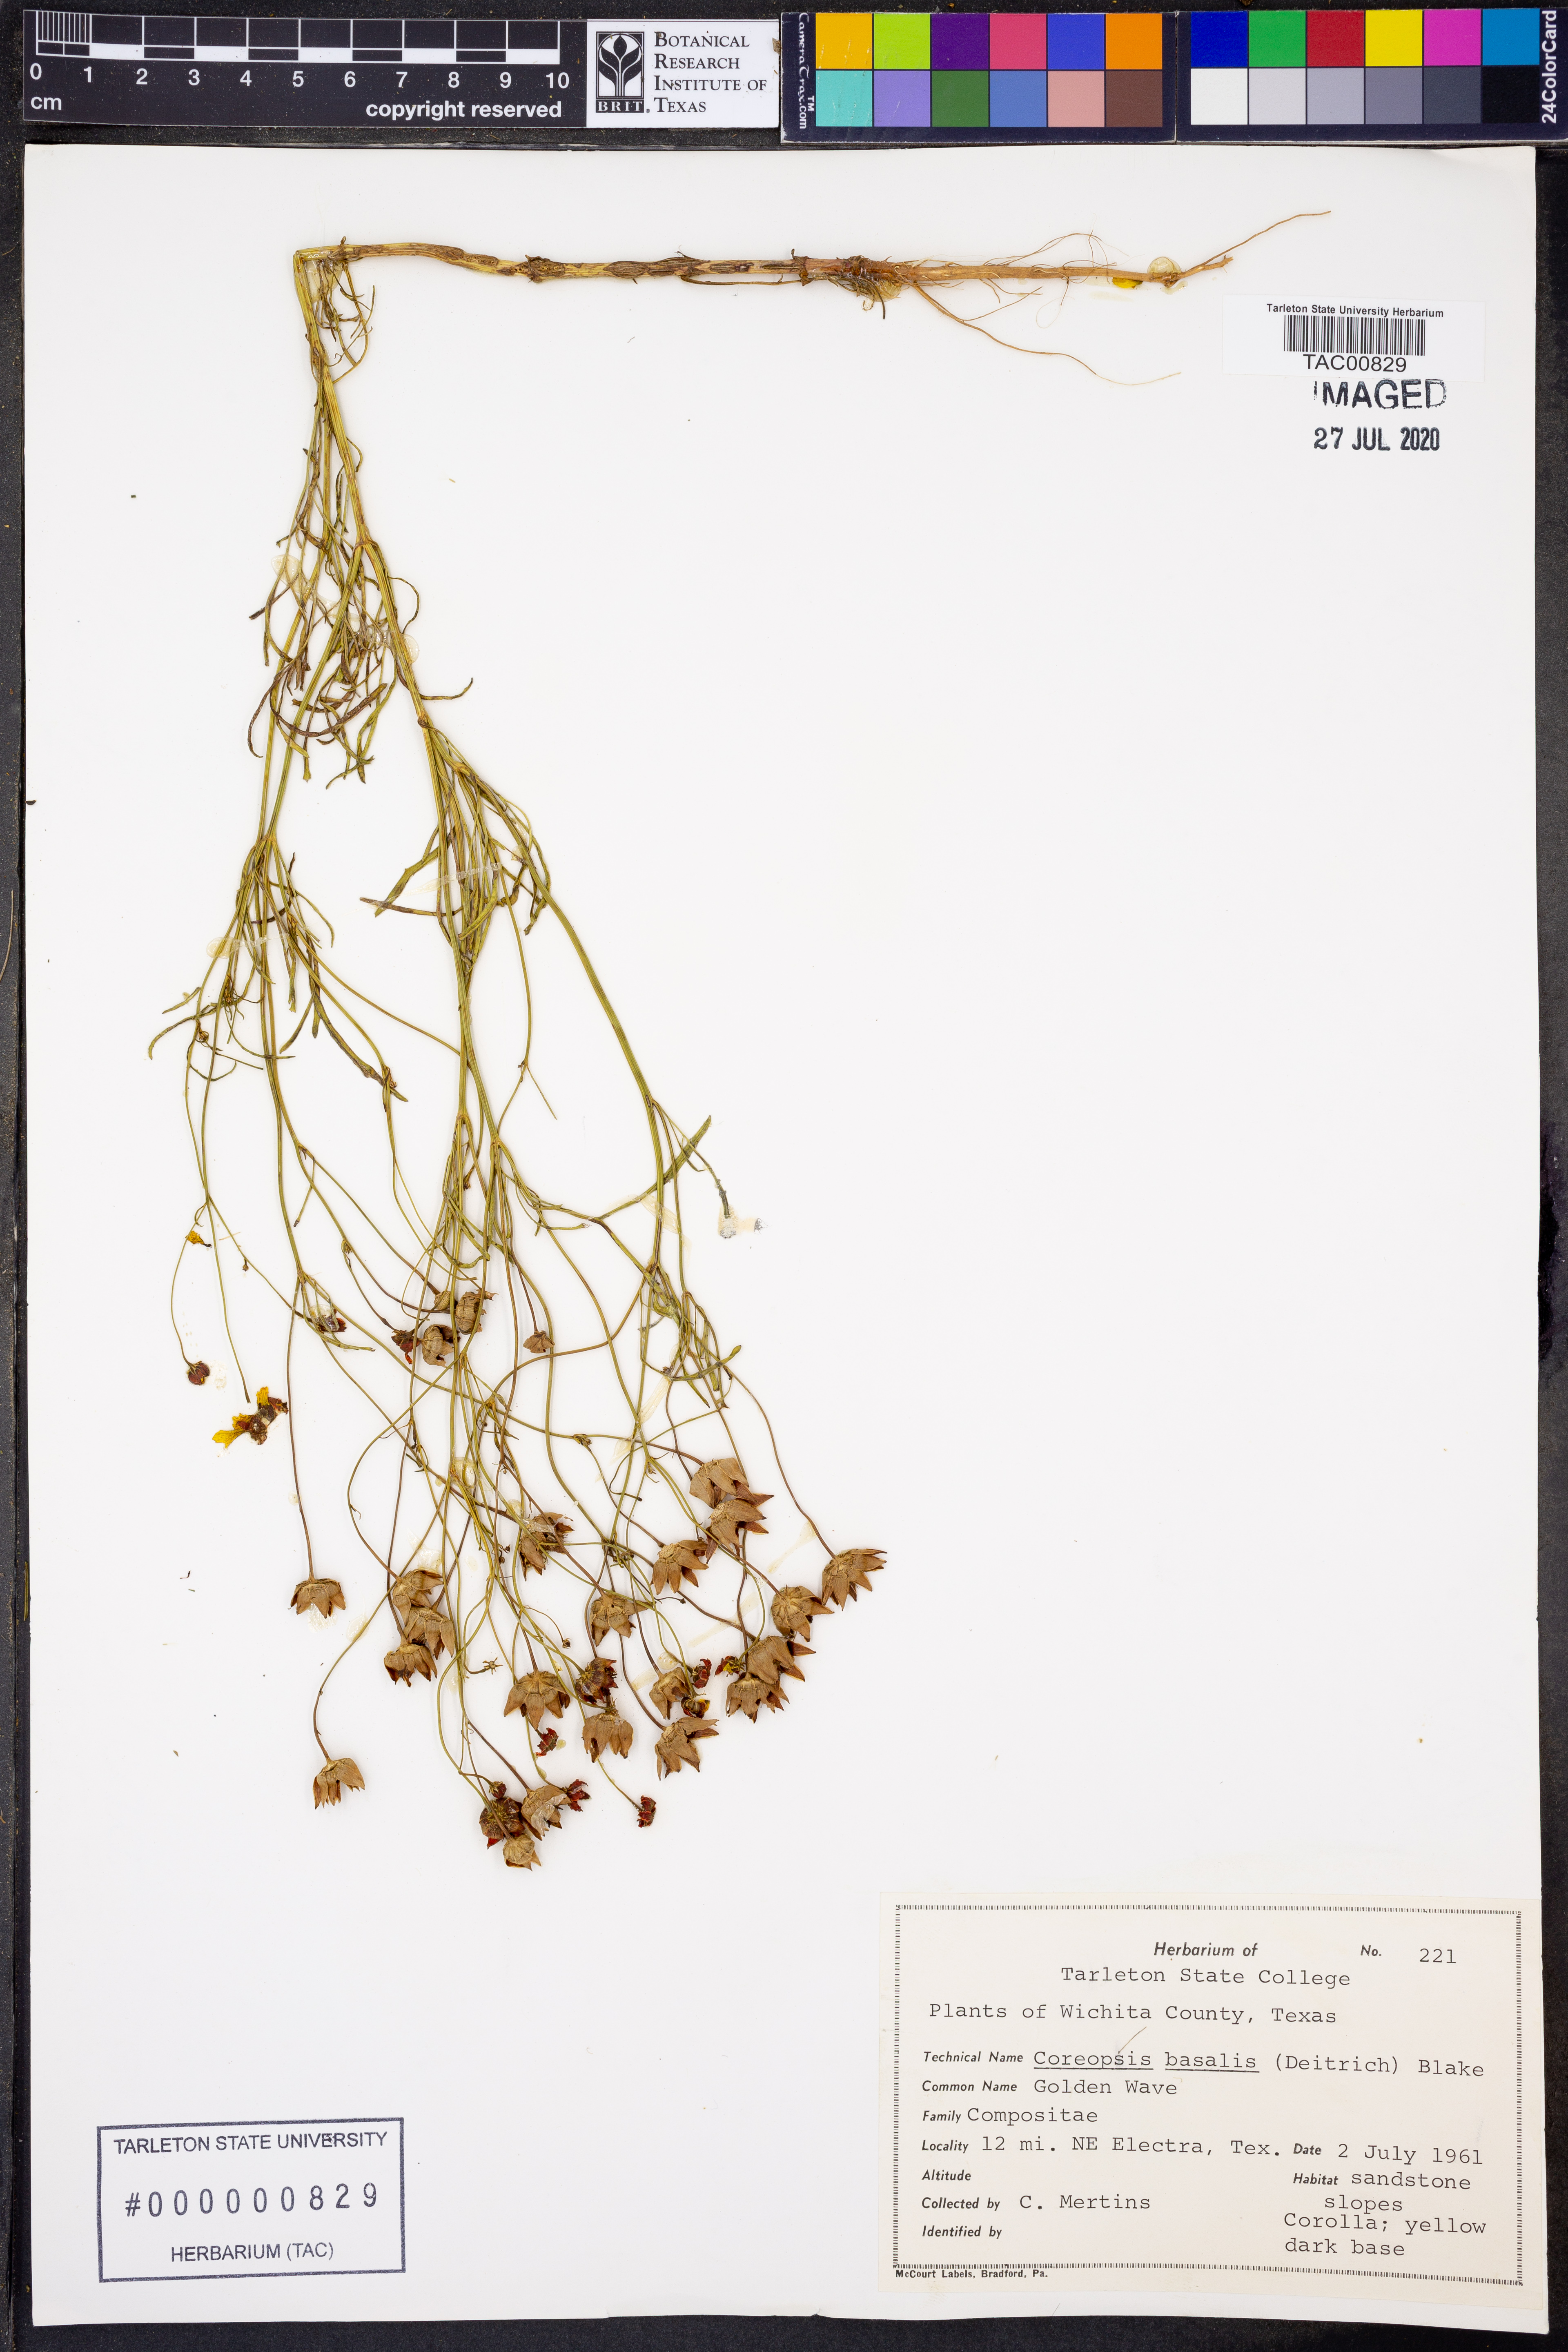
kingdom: Plantae
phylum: Tracheophyta
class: Magnoliopsida
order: Asterales
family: Asteraceae
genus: Coreopsis
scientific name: Coreopsis basalis
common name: Golden-mane coreopsis
